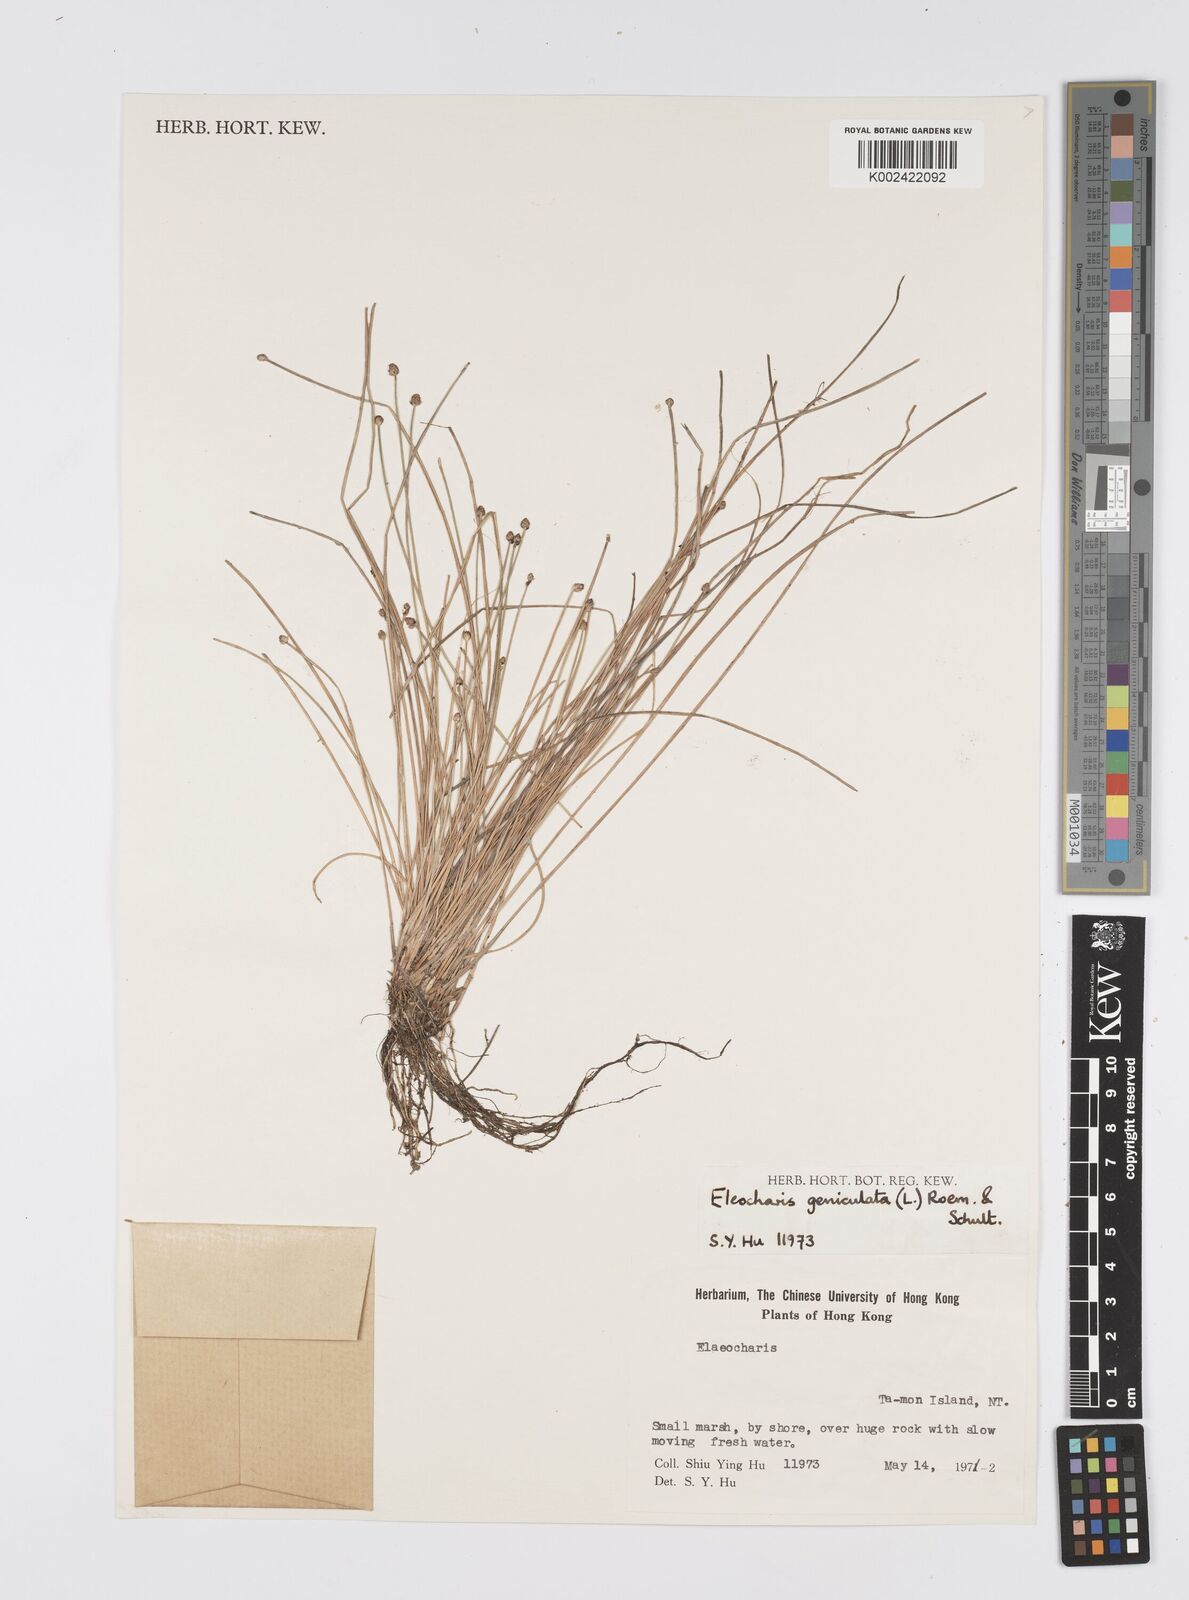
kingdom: Plantae
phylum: Tracheophyta
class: Liliopsida
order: Poales
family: Cyperaceae
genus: Eleocharis
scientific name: Eleocharis geniculata
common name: Canada spikesedge
